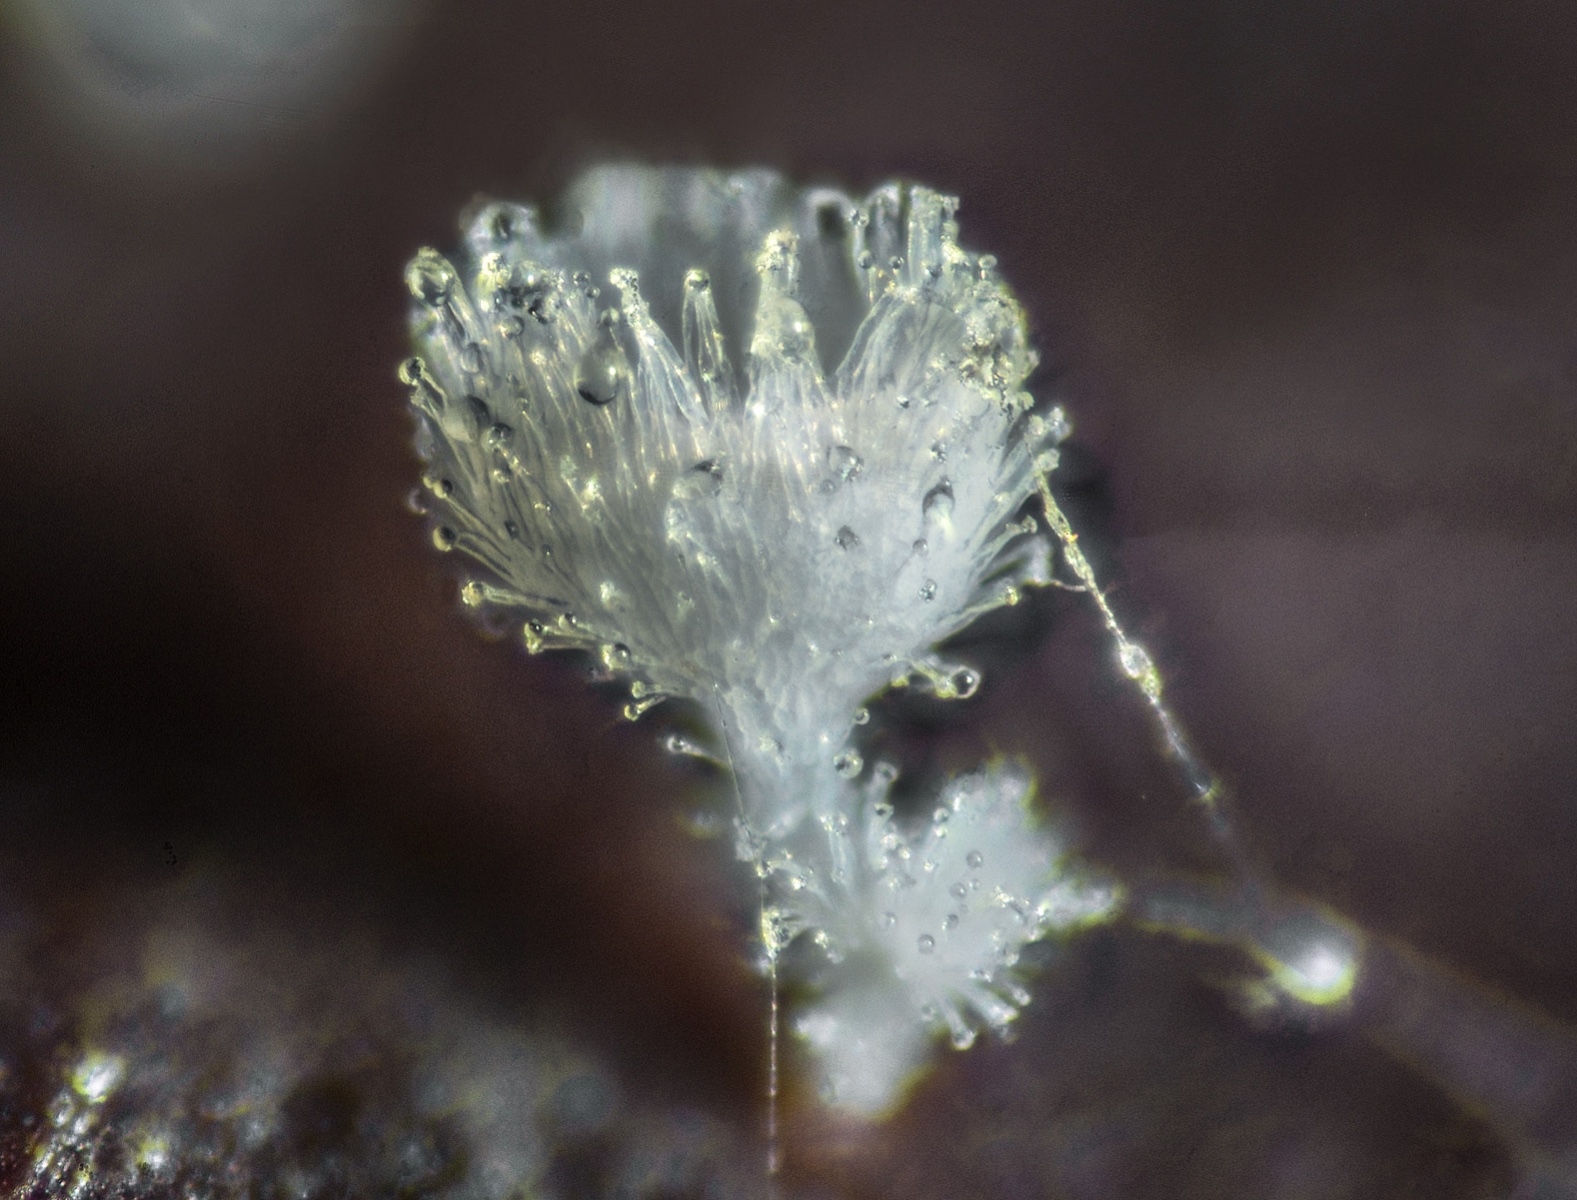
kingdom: Fungi
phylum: Ascomycota
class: Leotiomycetes
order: Helotiales
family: Lachnaceae
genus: Incrucipulum
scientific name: Incrucipulum ciliare
